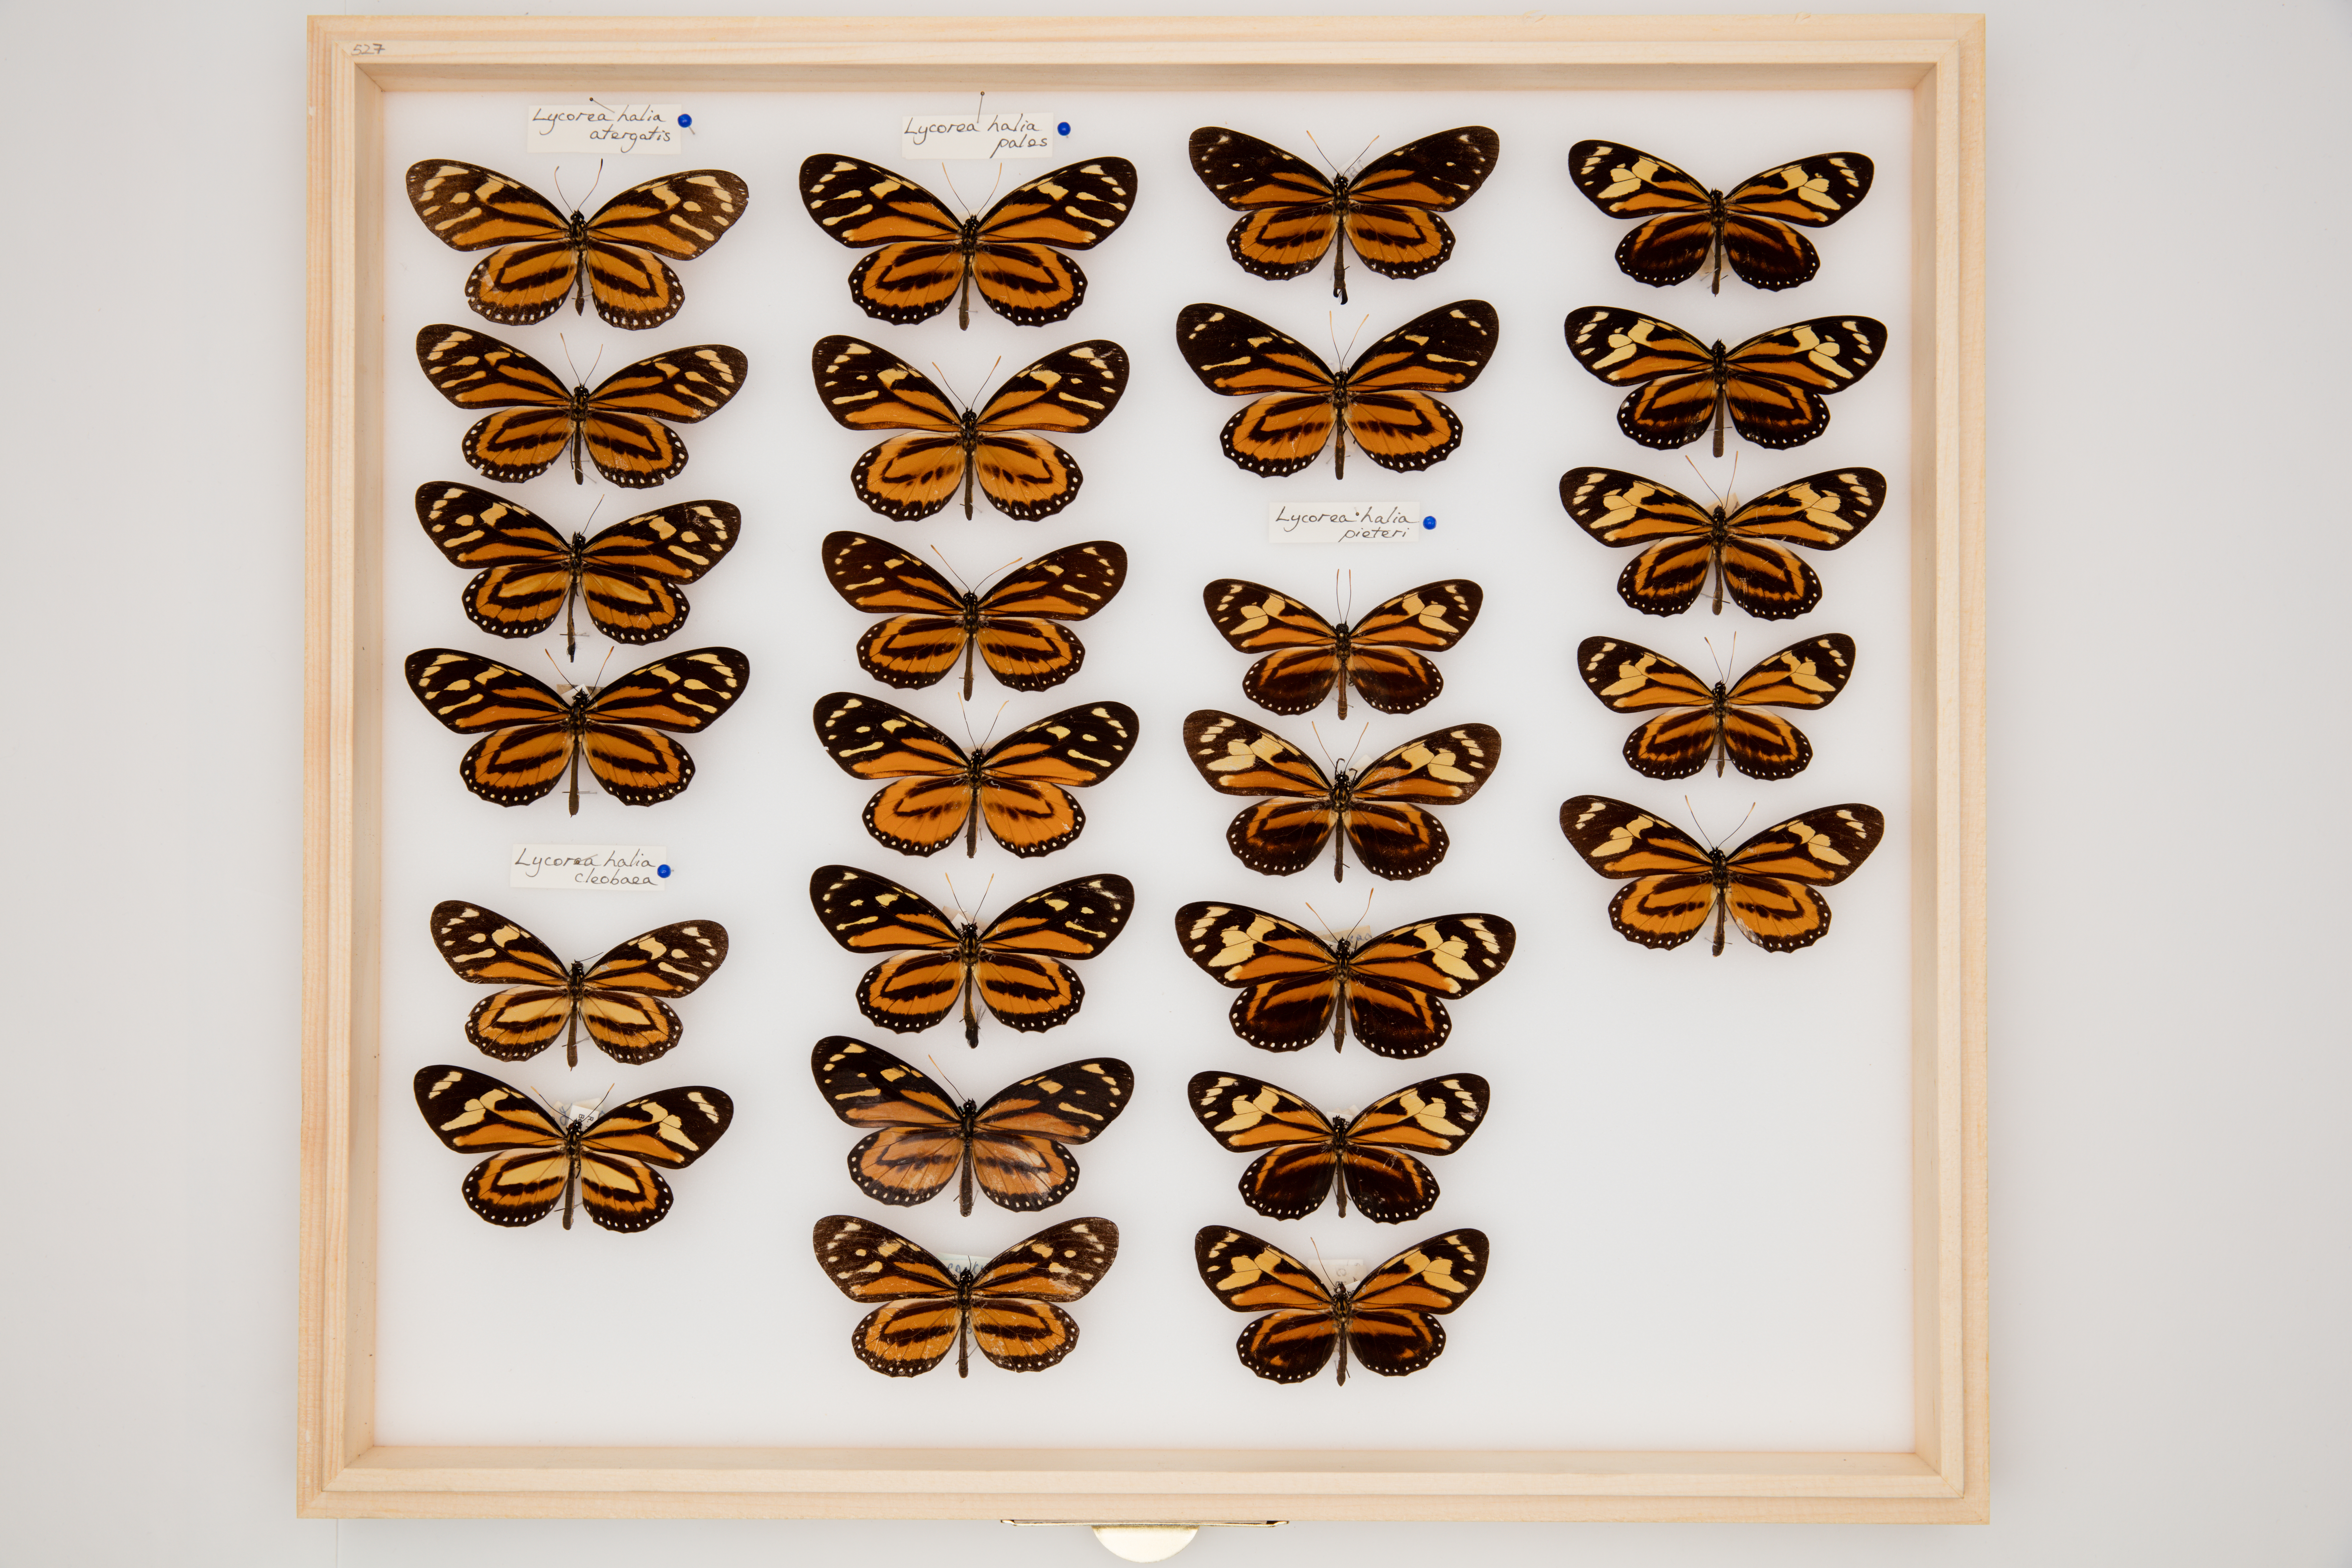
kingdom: Animalia
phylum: Arthropoda
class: Insecta
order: Lepidoptera
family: Nymphalidae
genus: Lycorea
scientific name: Lycorea cleobaea
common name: Tiger mimic-queen
